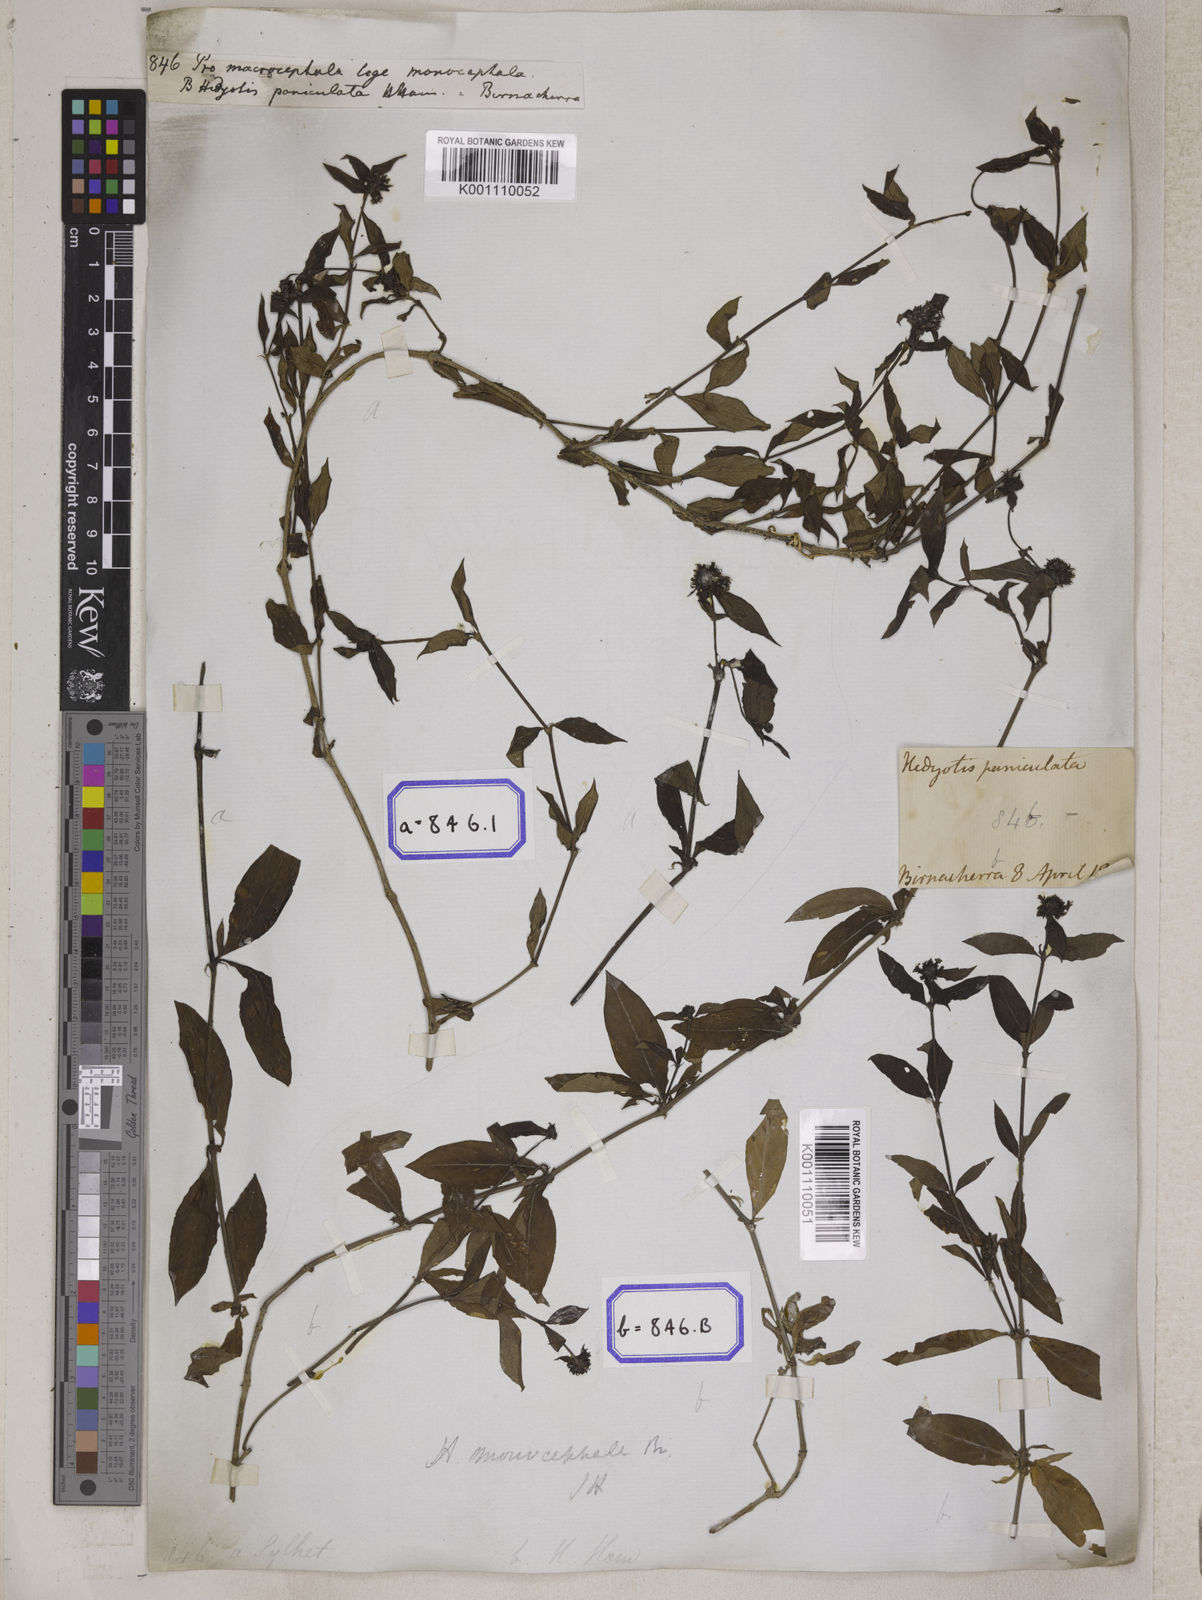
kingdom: Plantae
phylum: Tracheophyta
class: Magnoliopsida
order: Gentianales
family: Rubiaceae
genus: Hedyotis
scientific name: Hedyotis
